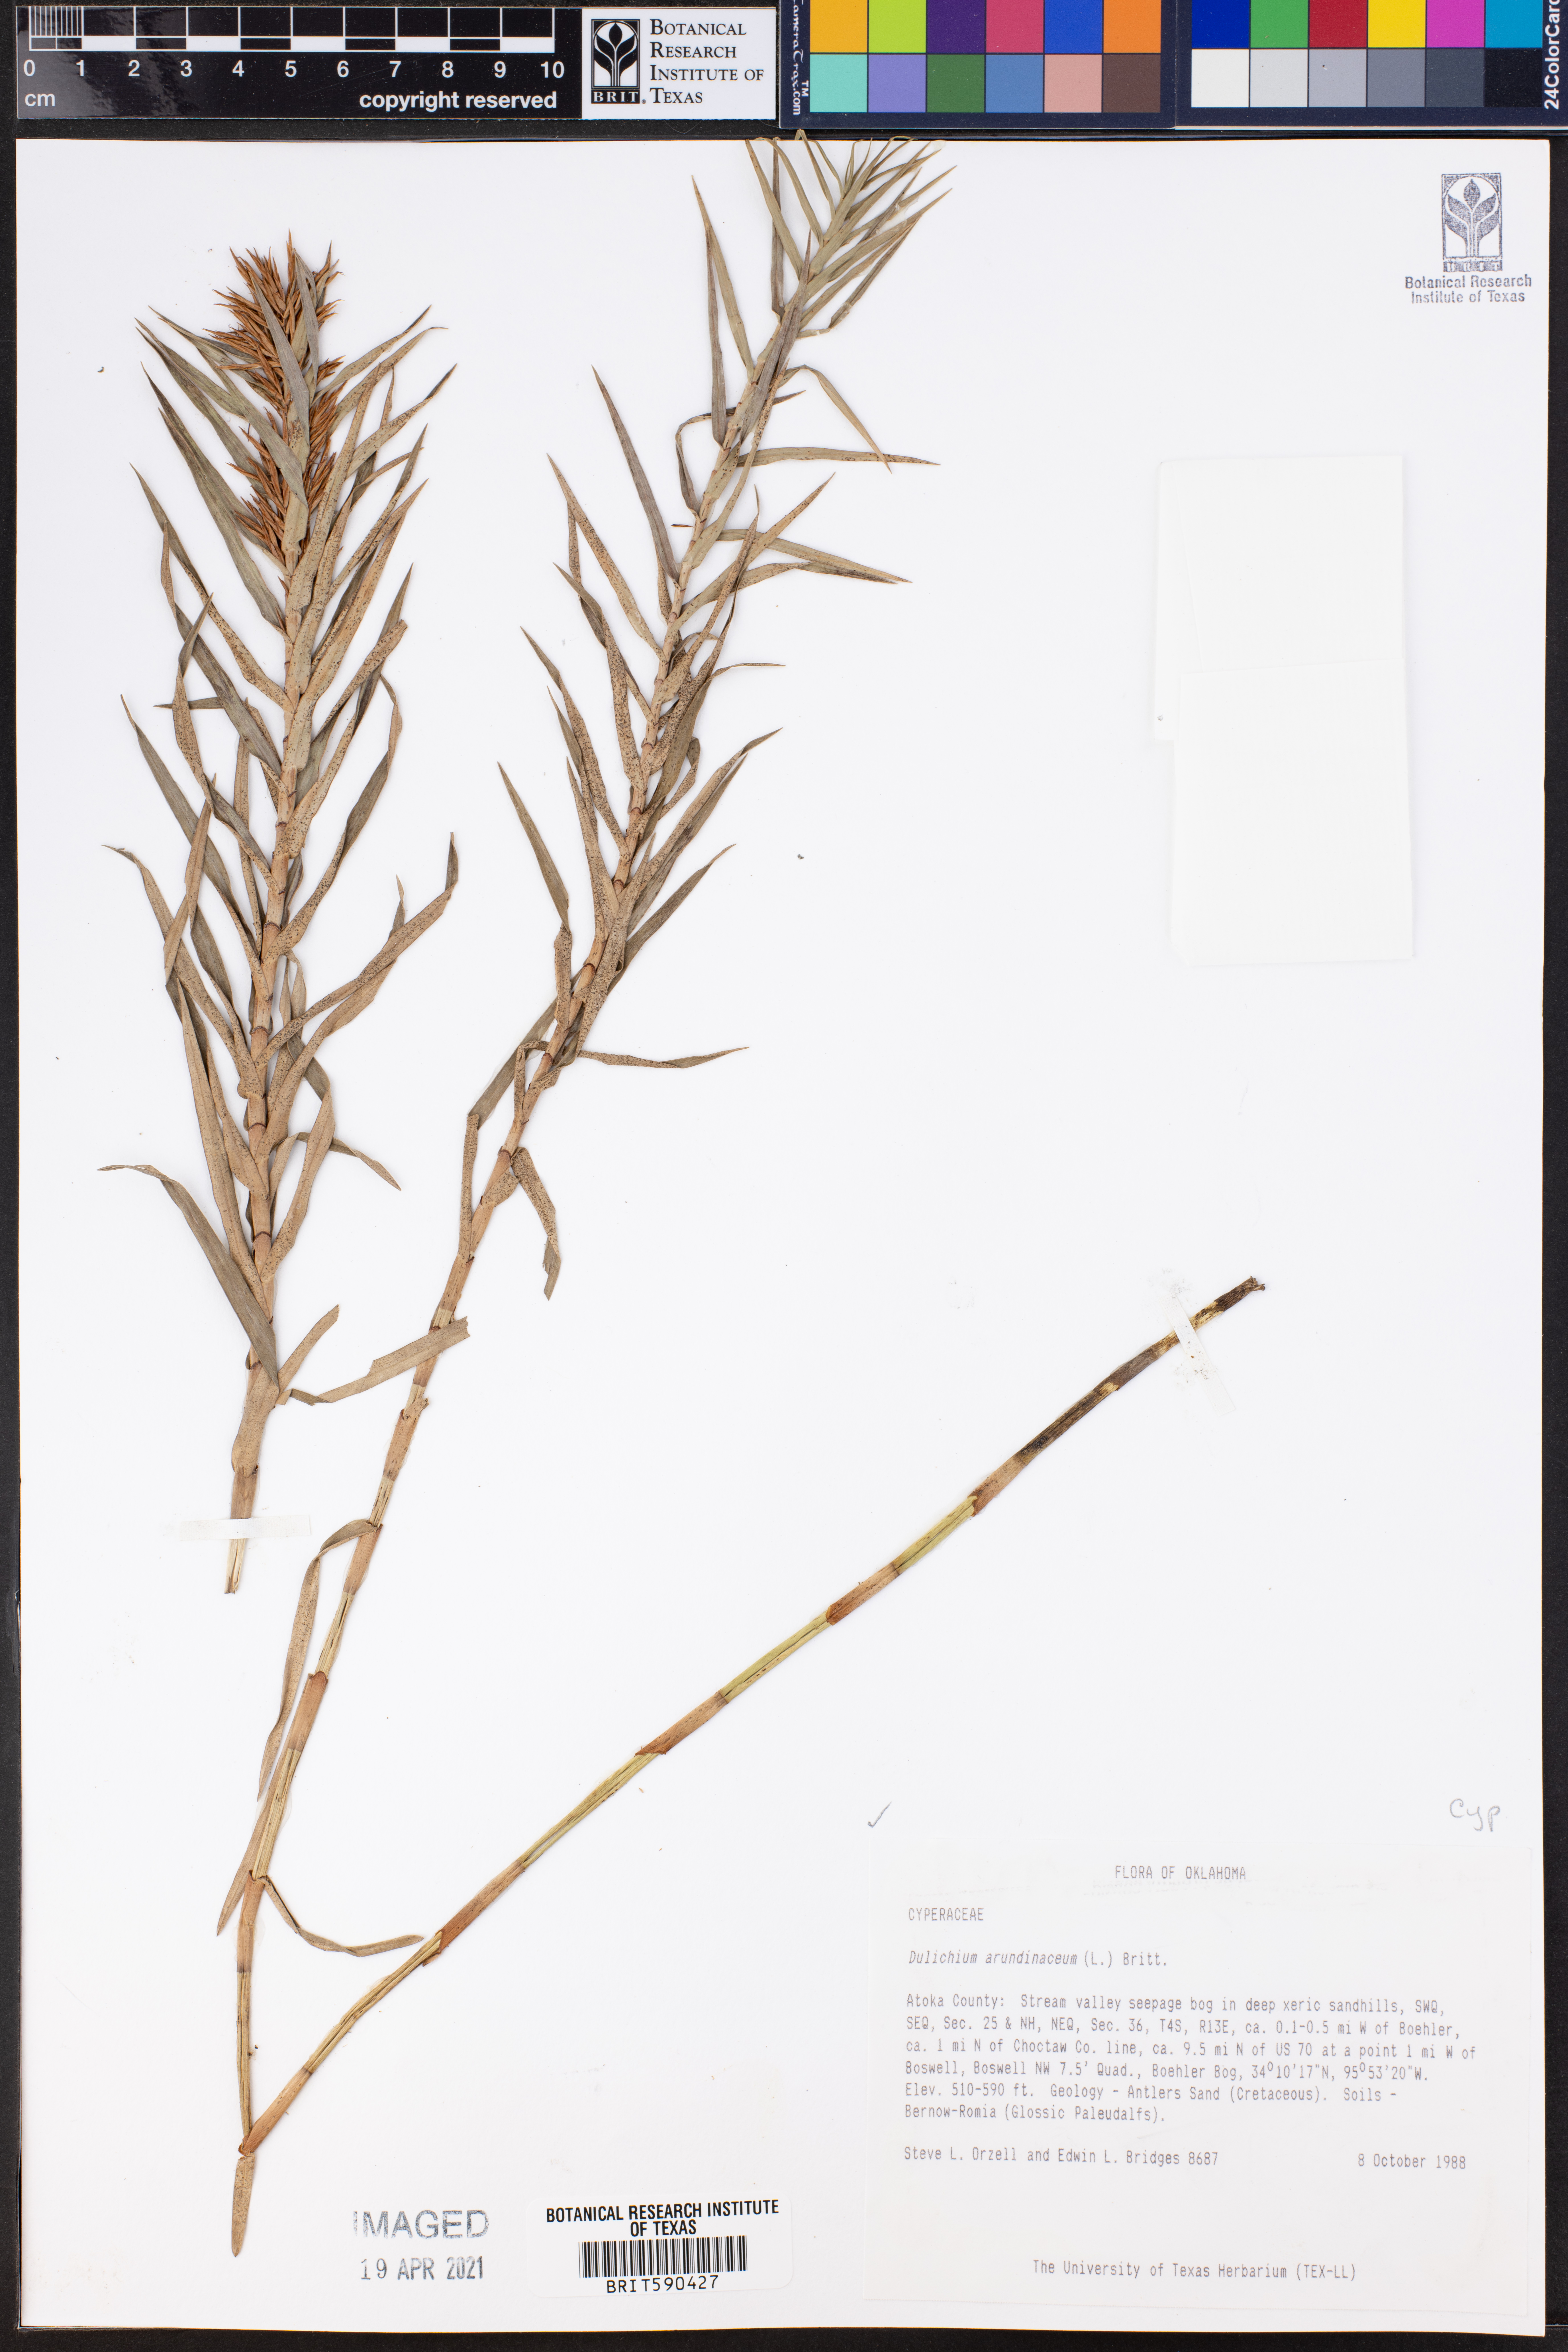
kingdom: Plantae
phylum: Tracheophyta
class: Liliopsida
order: Poales
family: Cyperaceae
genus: Dulichium
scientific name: Dulichium arundinaceum
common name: Three-way sedge
